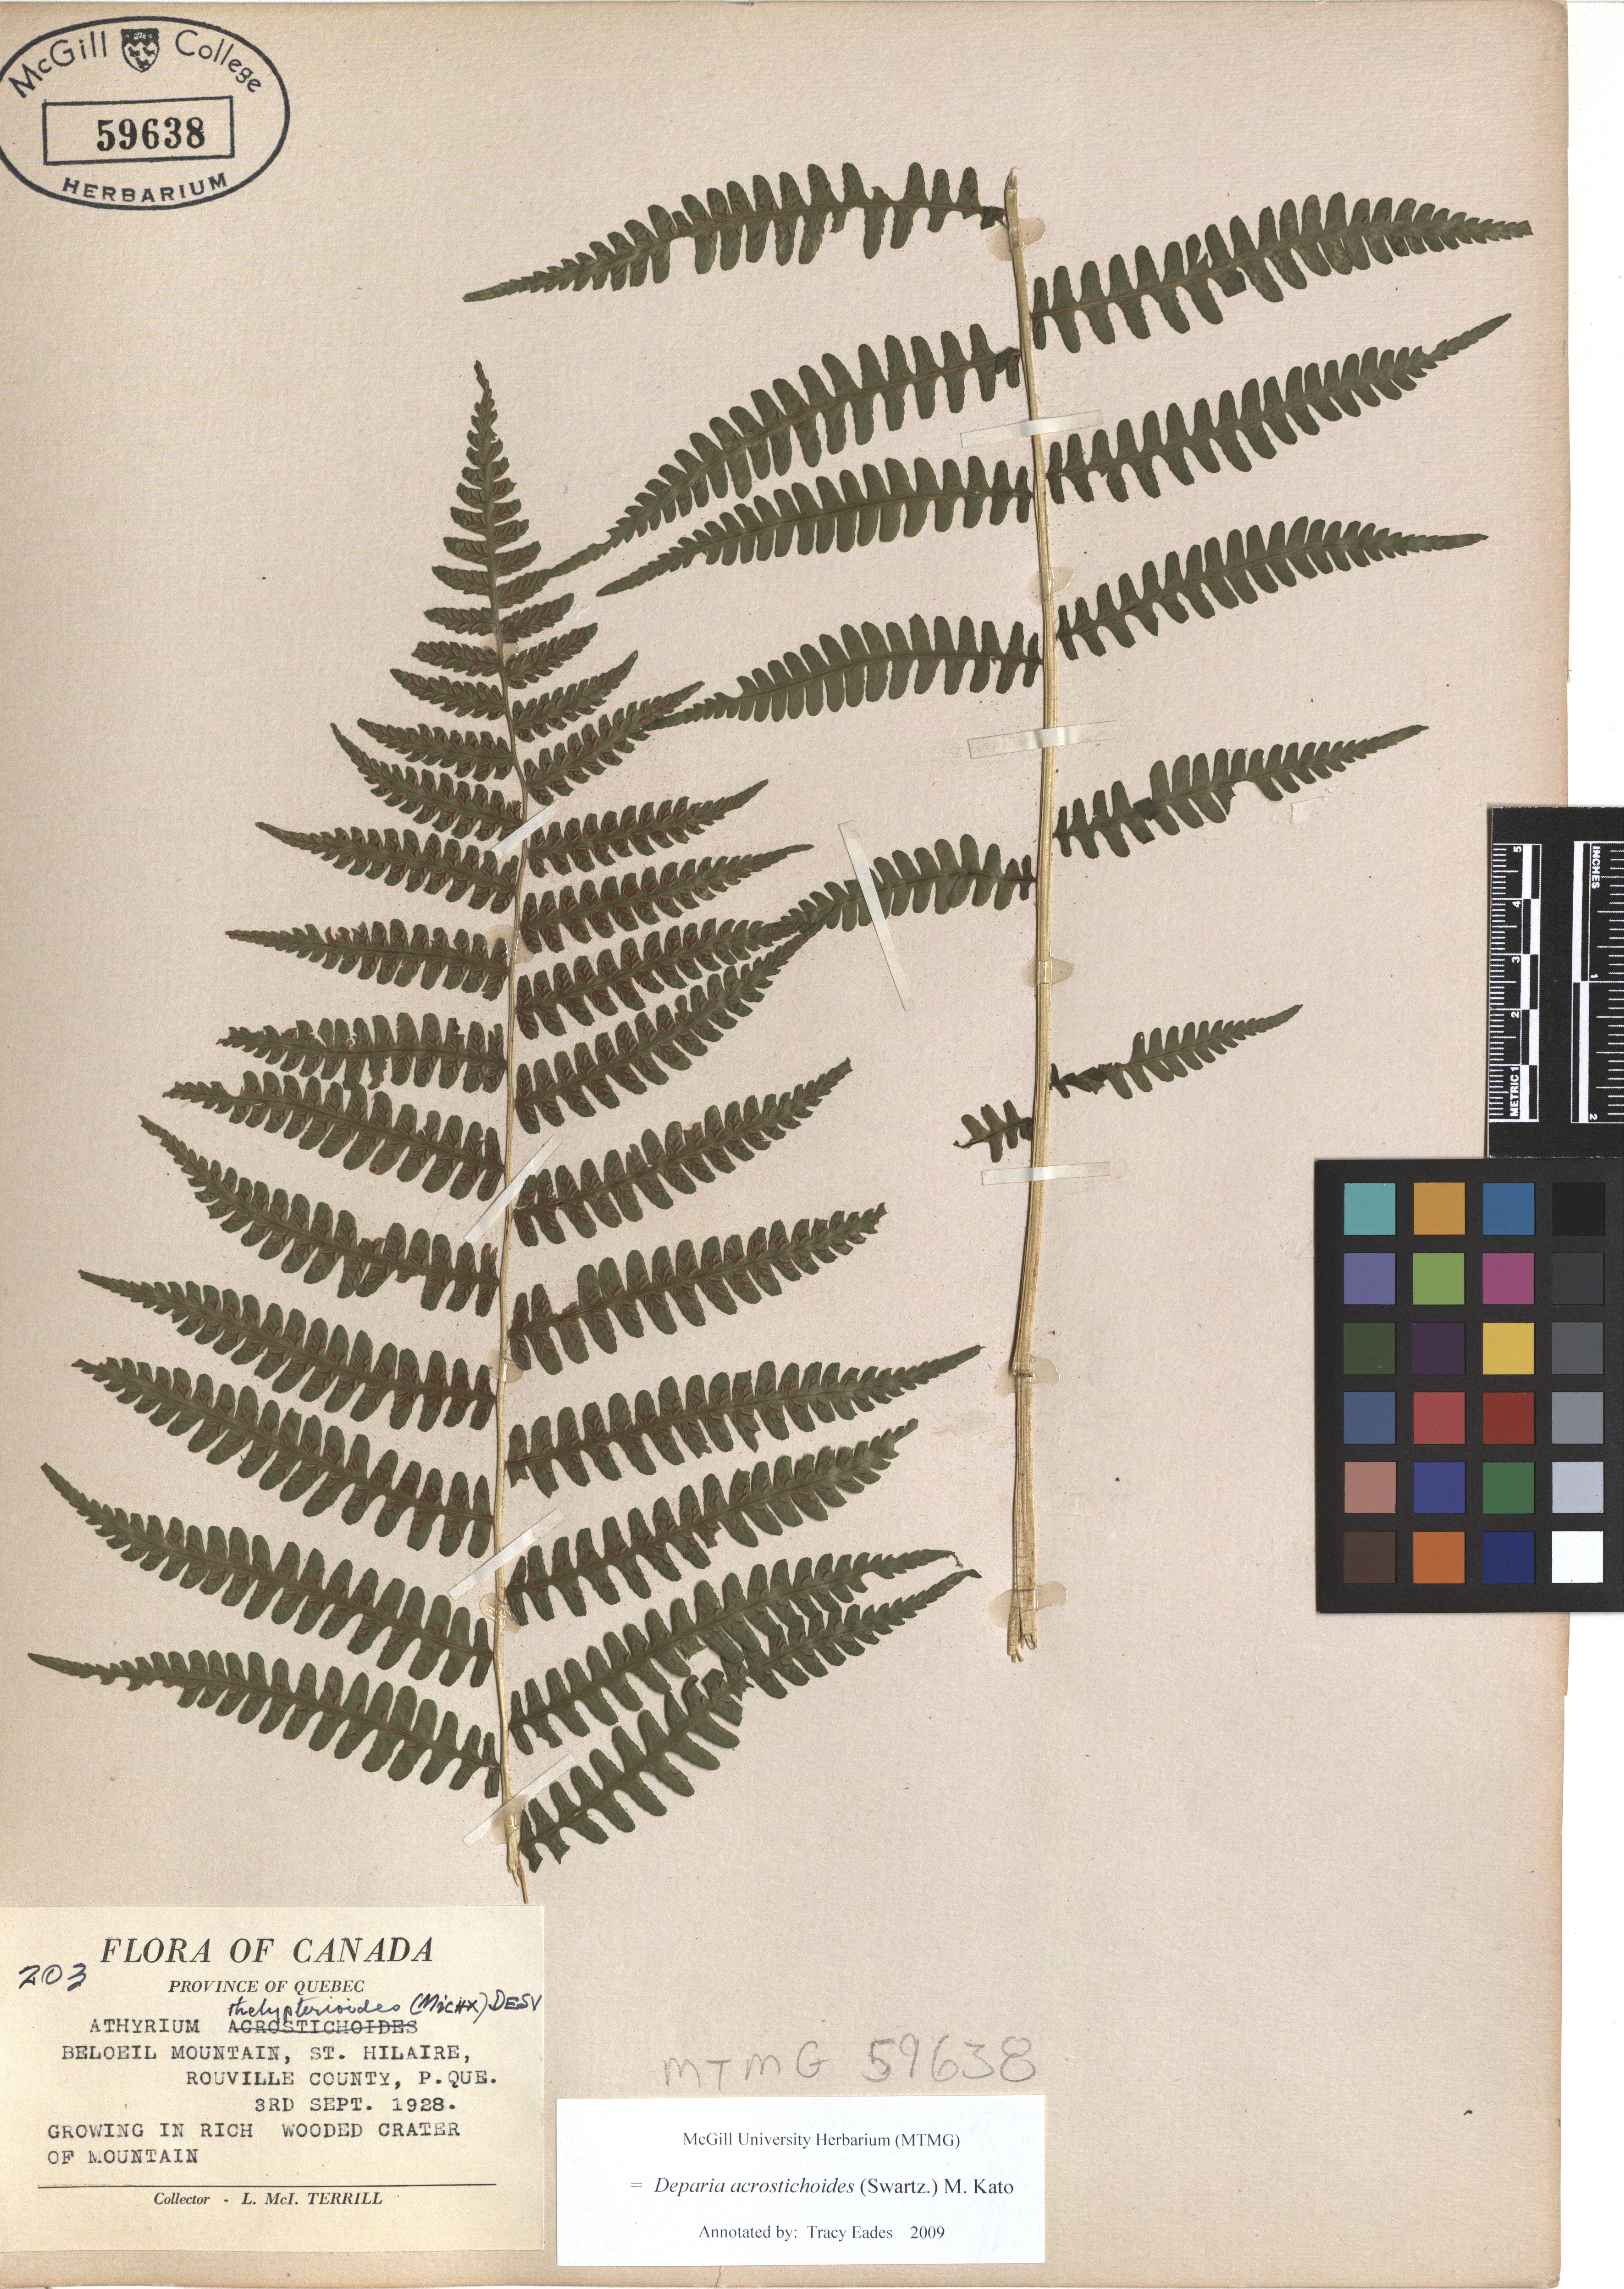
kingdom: Plantae
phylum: Tracheophyta
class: Polypodiopsida
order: Polypodiales
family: Athyriaceae
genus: Deparia
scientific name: Deparia acrostichoides
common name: Silver false spleenwort
